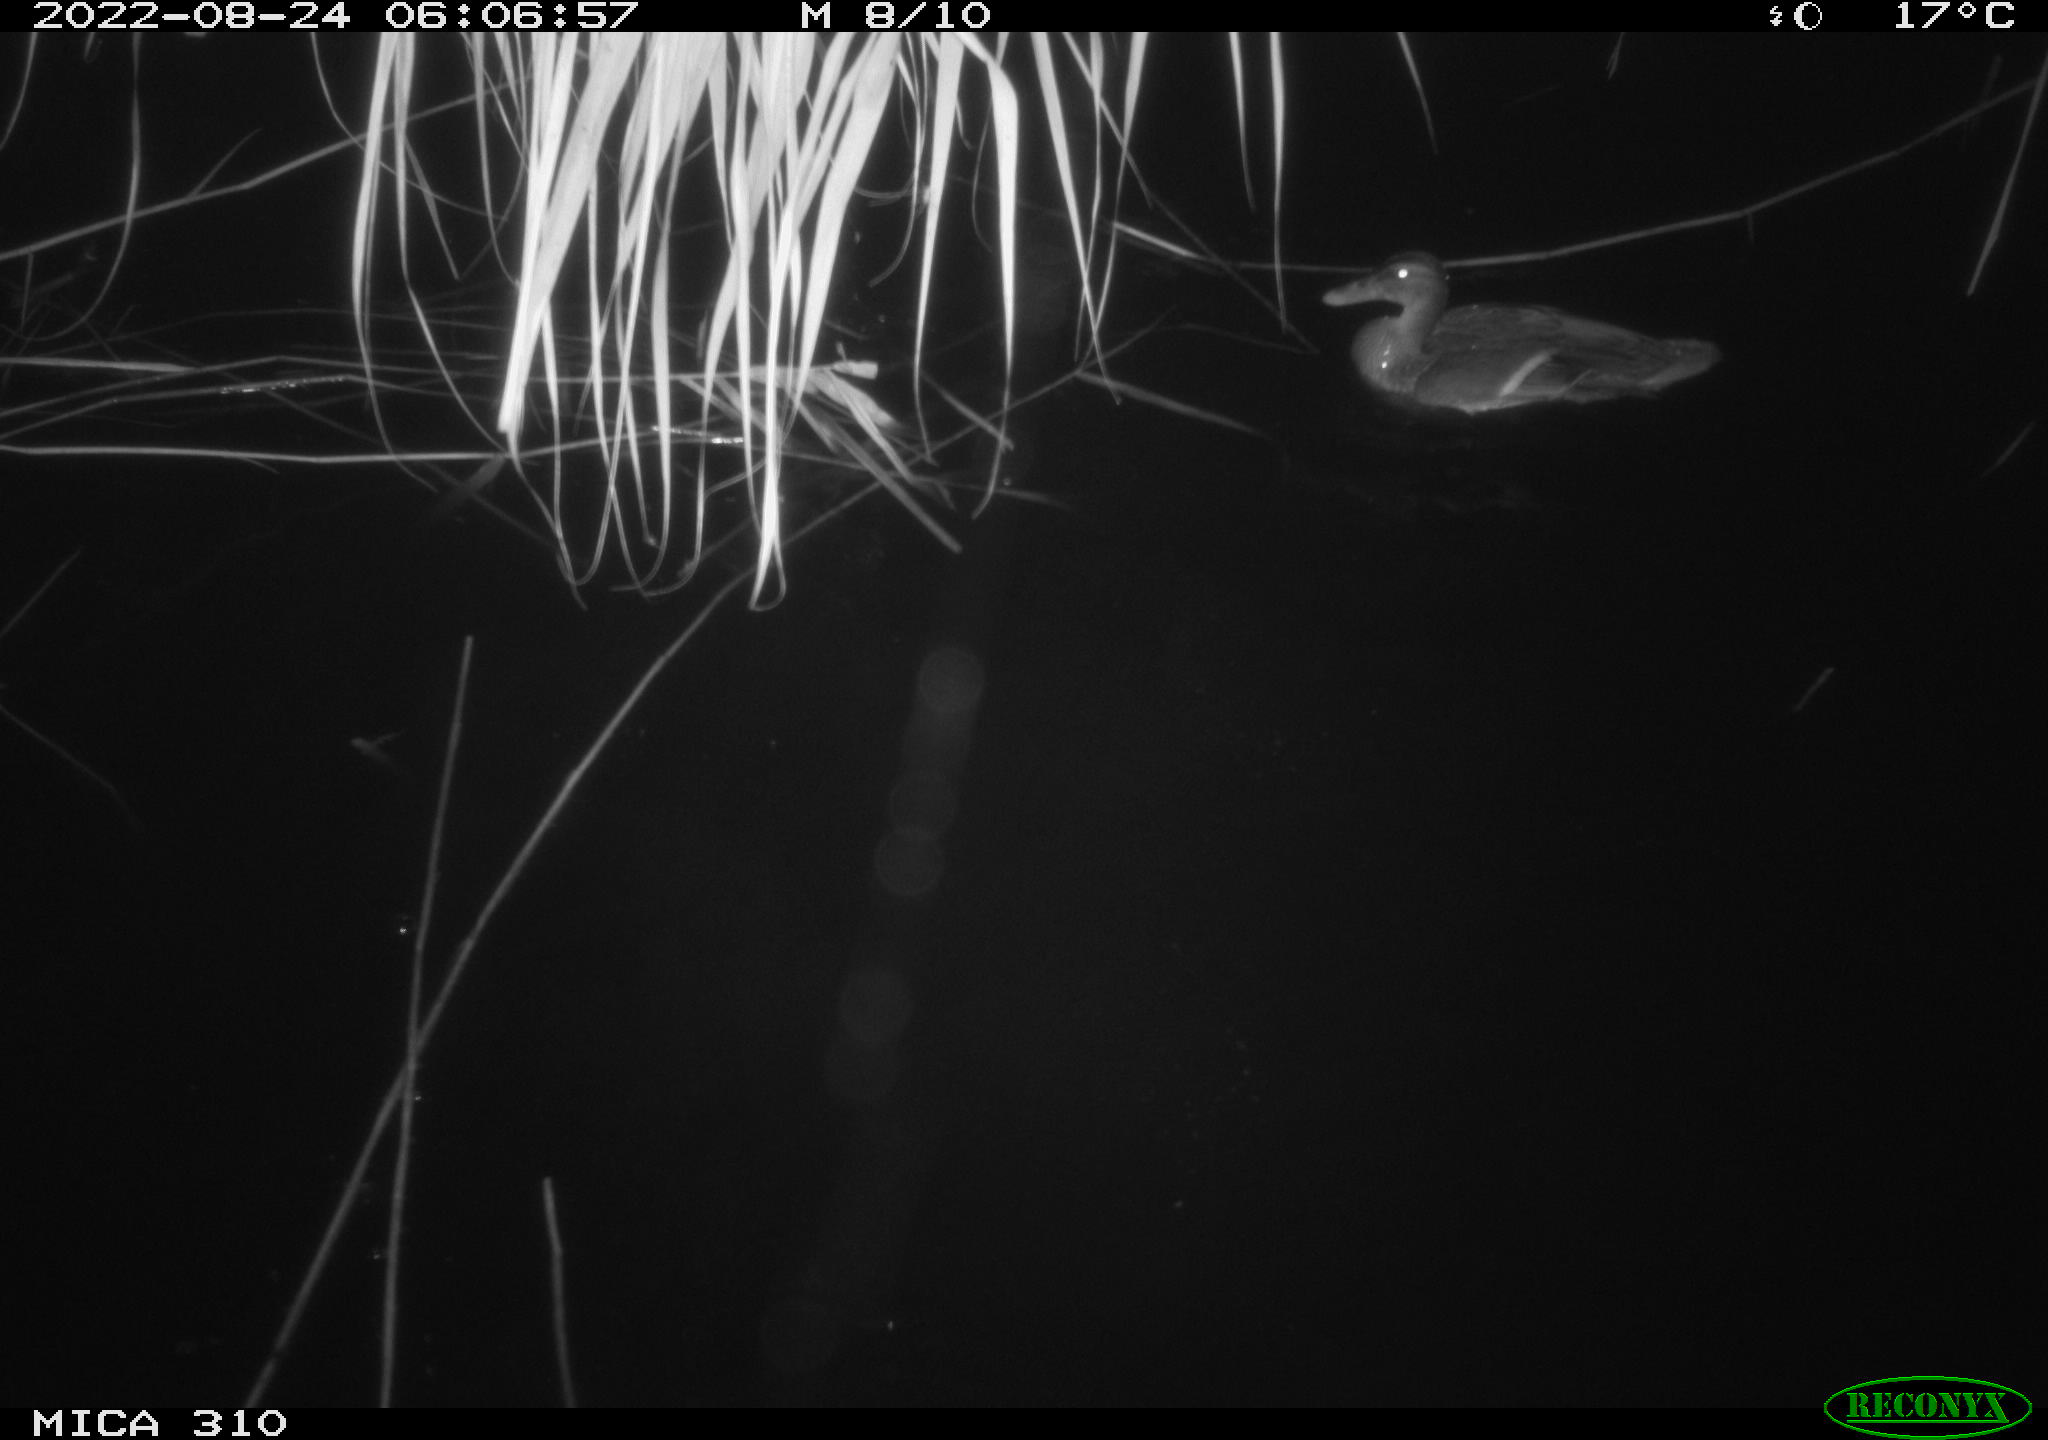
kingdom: Animalia
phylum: Chordata
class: Aves
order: Anseriformes
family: Anatidae
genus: Anas
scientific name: Anas platyrhynchos
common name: Mallard
